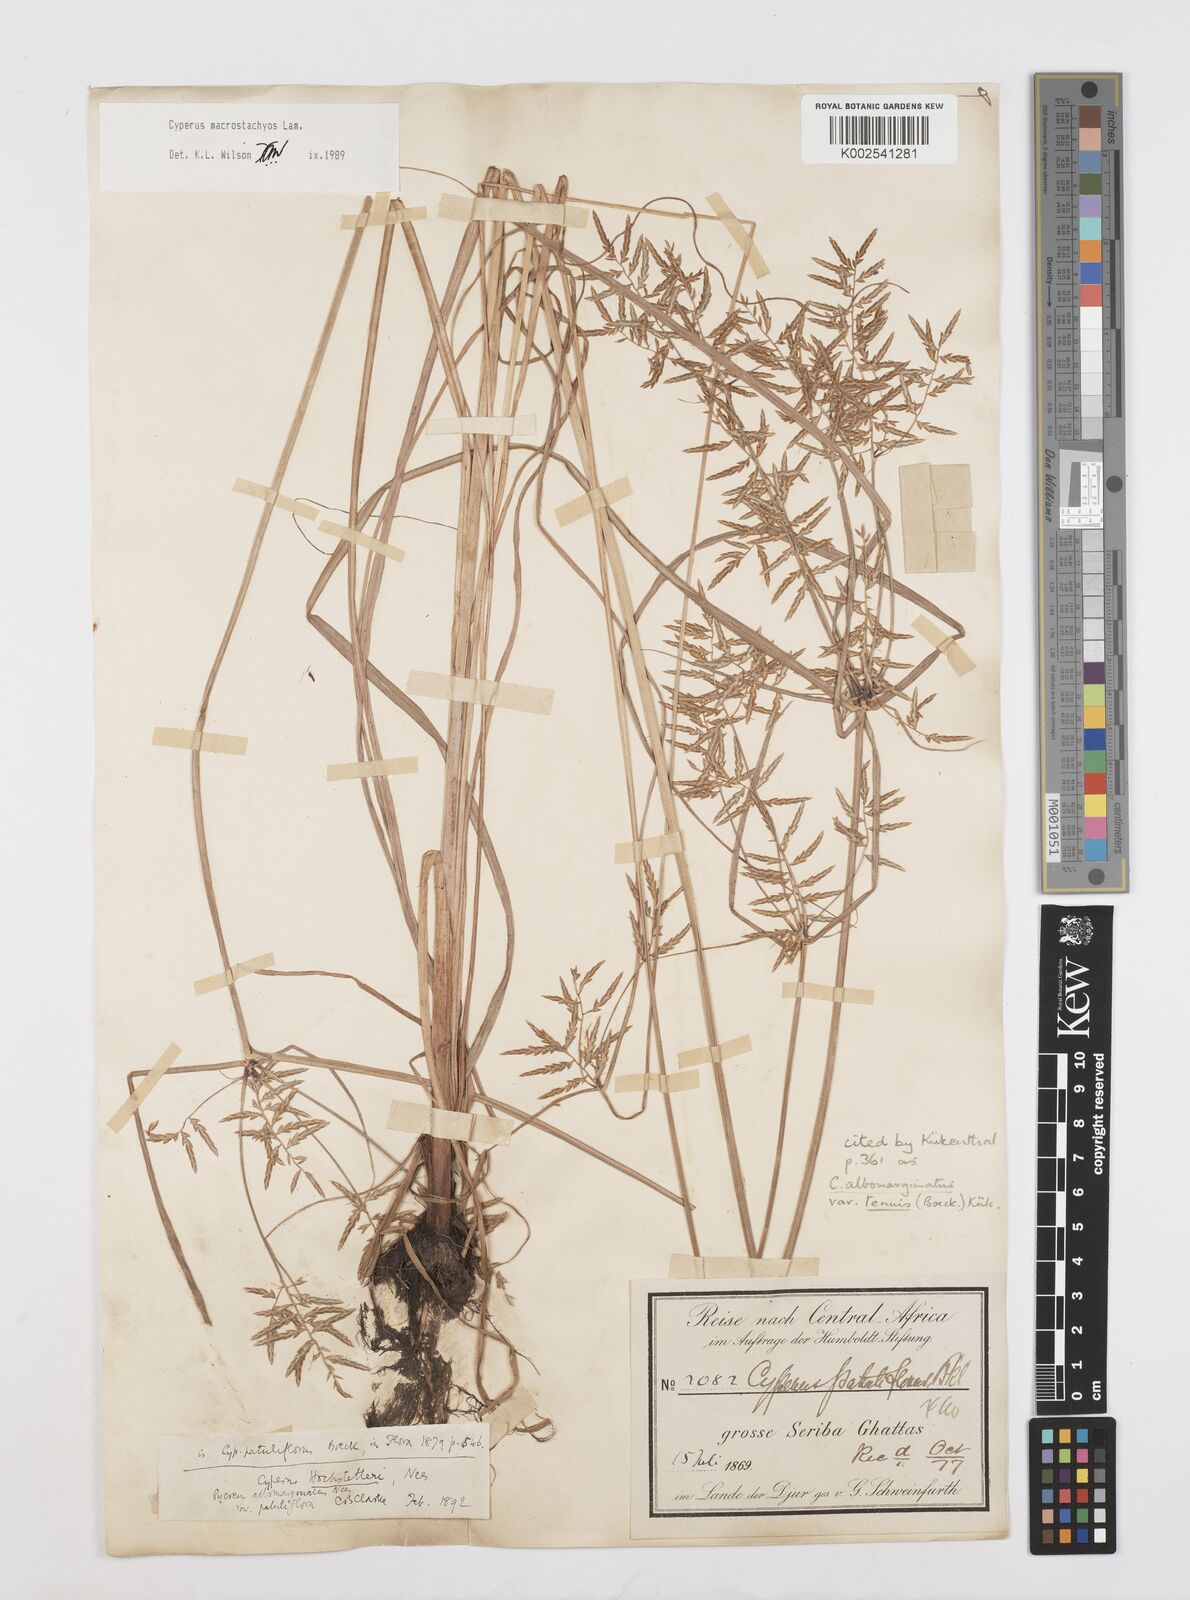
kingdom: Plantae
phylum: Tracheophyta
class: Liliopsida
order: Poales
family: Cyperaceae
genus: Cyperus
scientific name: Cyperus macrostachyos
